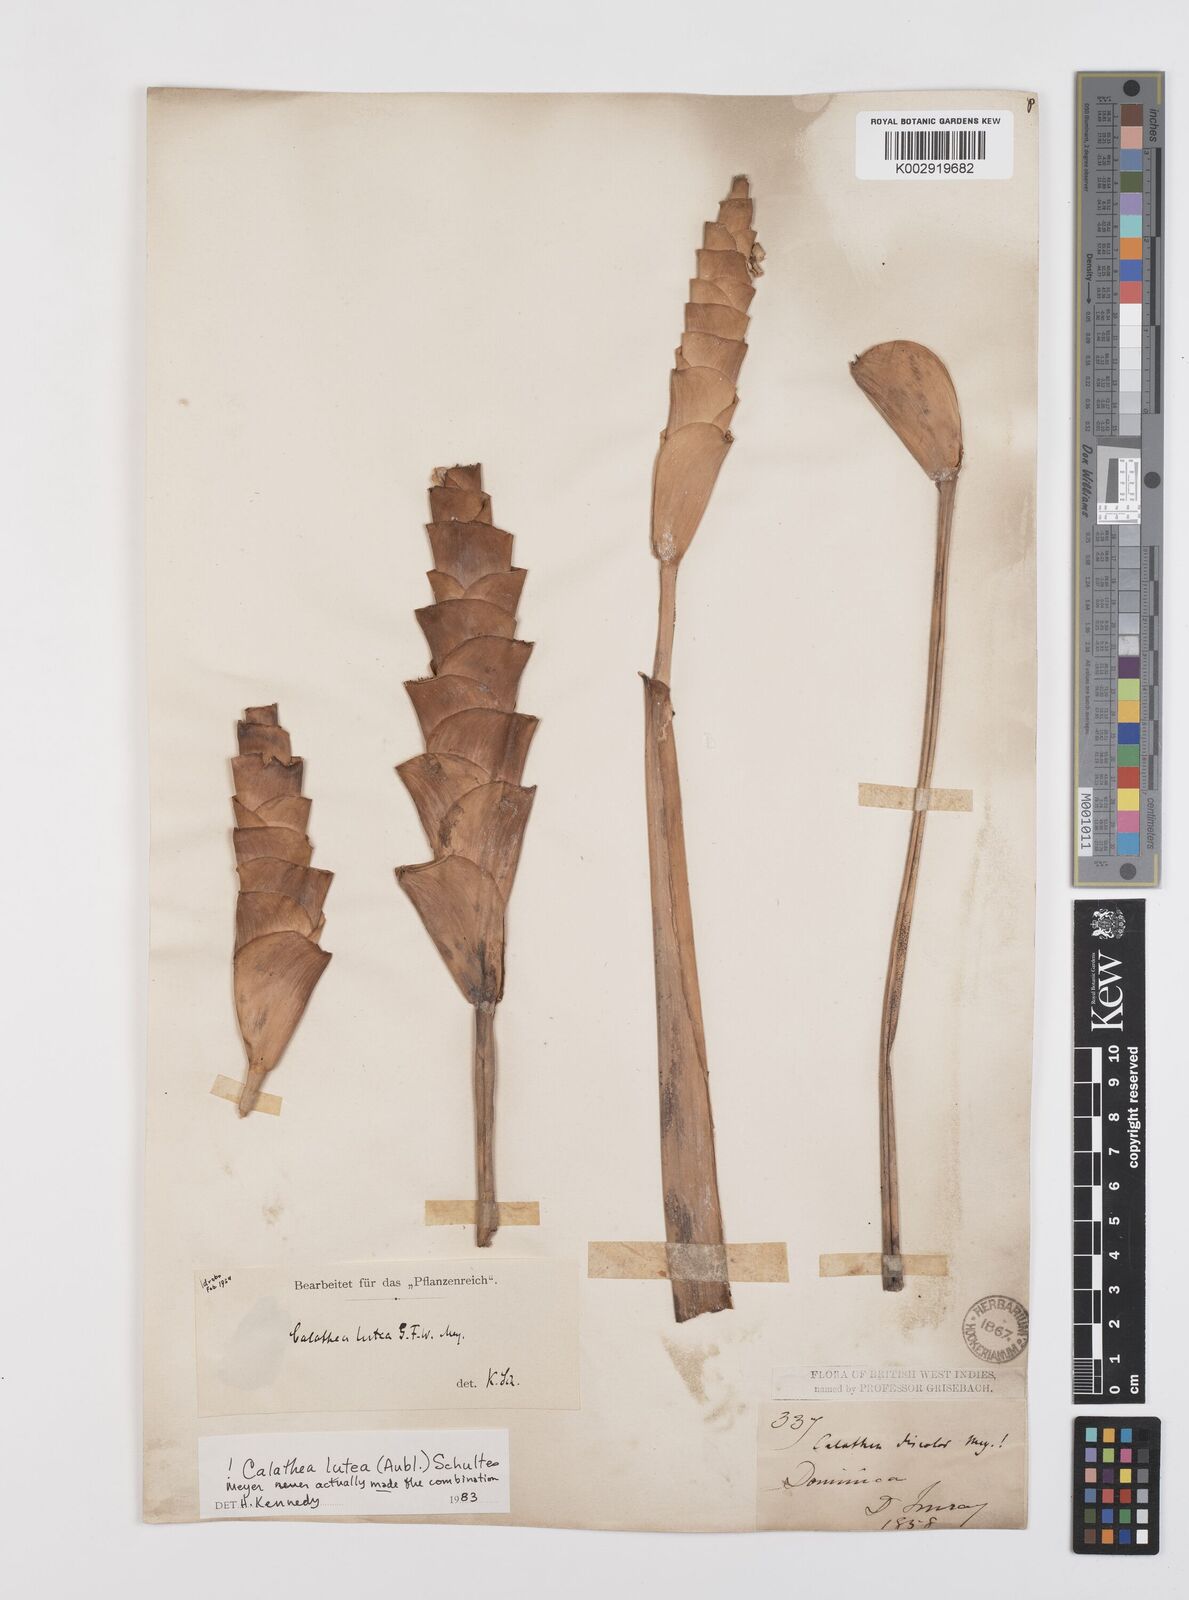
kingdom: Plantae
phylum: Tracheophyta
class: Liliopsida
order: Zingiberales
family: Marantaceae
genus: Calathea
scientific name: Calathea lutea
